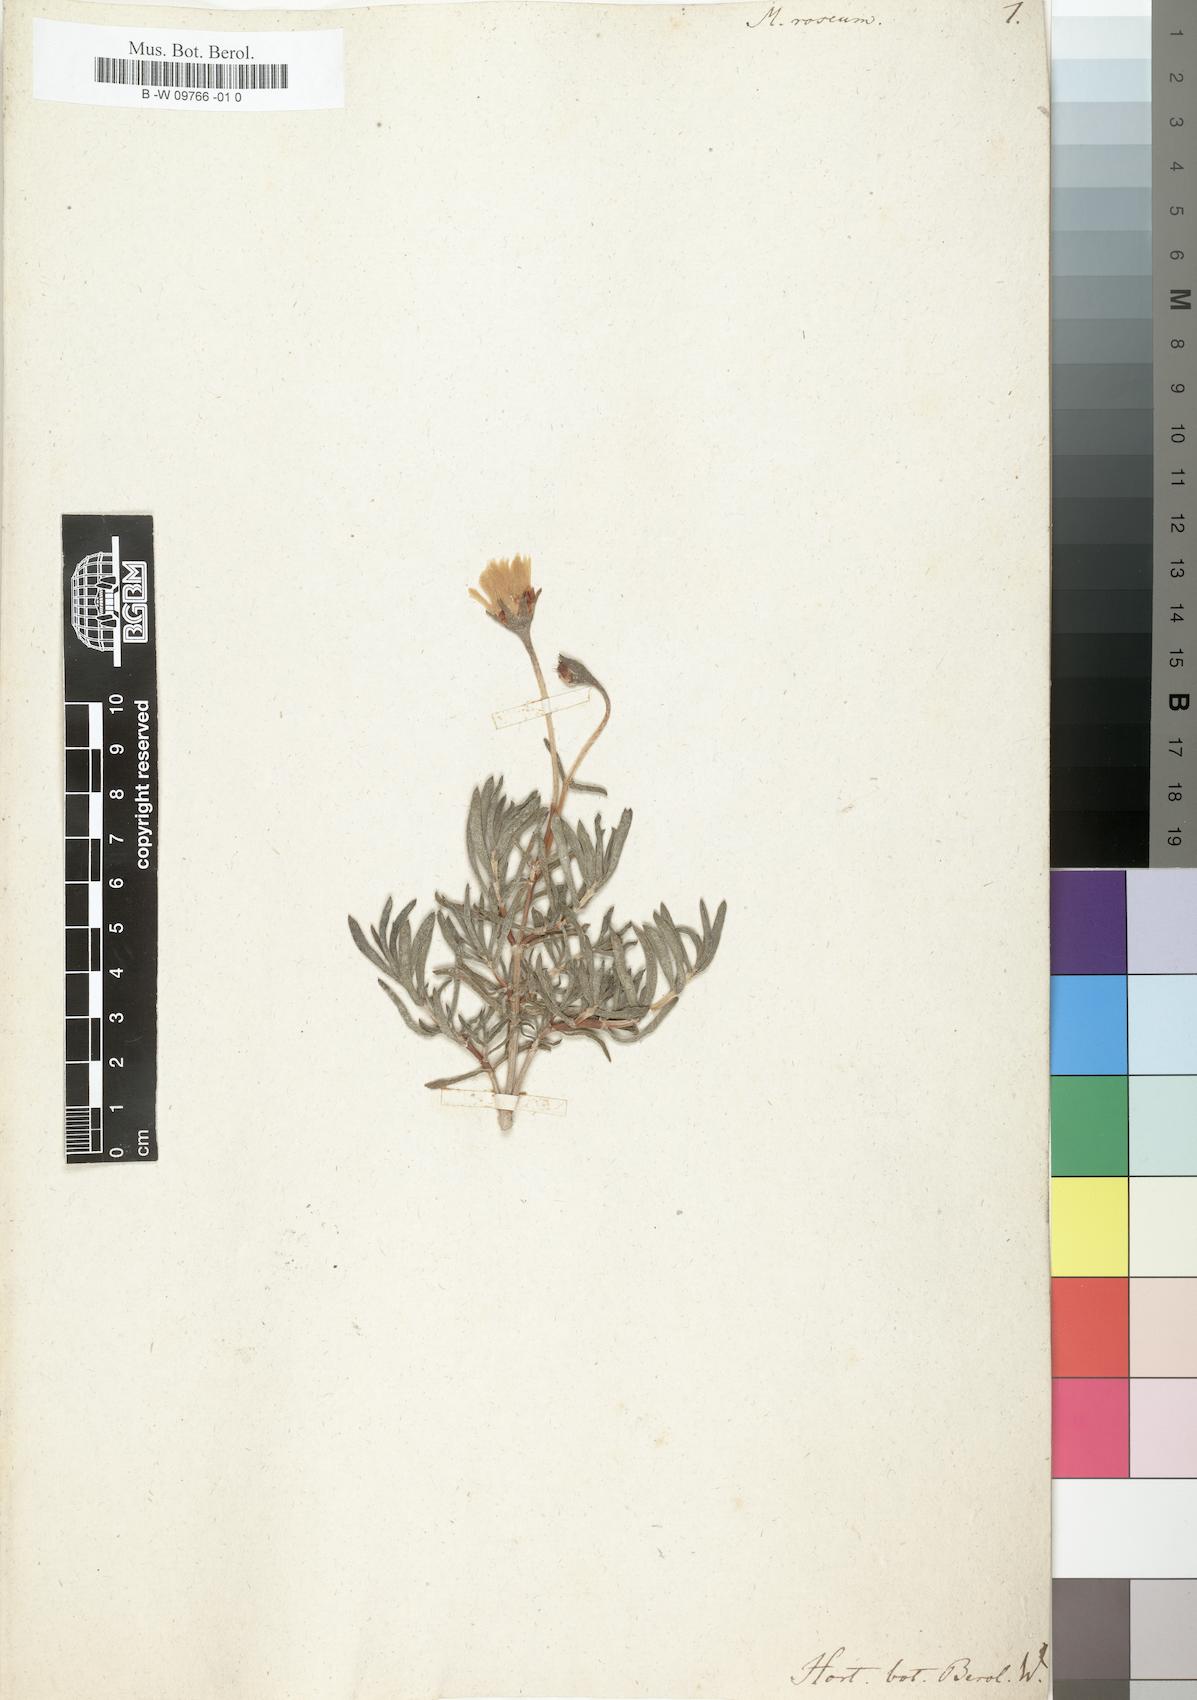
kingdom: Plantae
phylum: Tracheophyta
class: Magnoliopsida
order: Caryophyllales
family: Aizoaceae
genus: Lampranthus
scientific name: Lampranthus roseus
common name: Rosy dewplant
